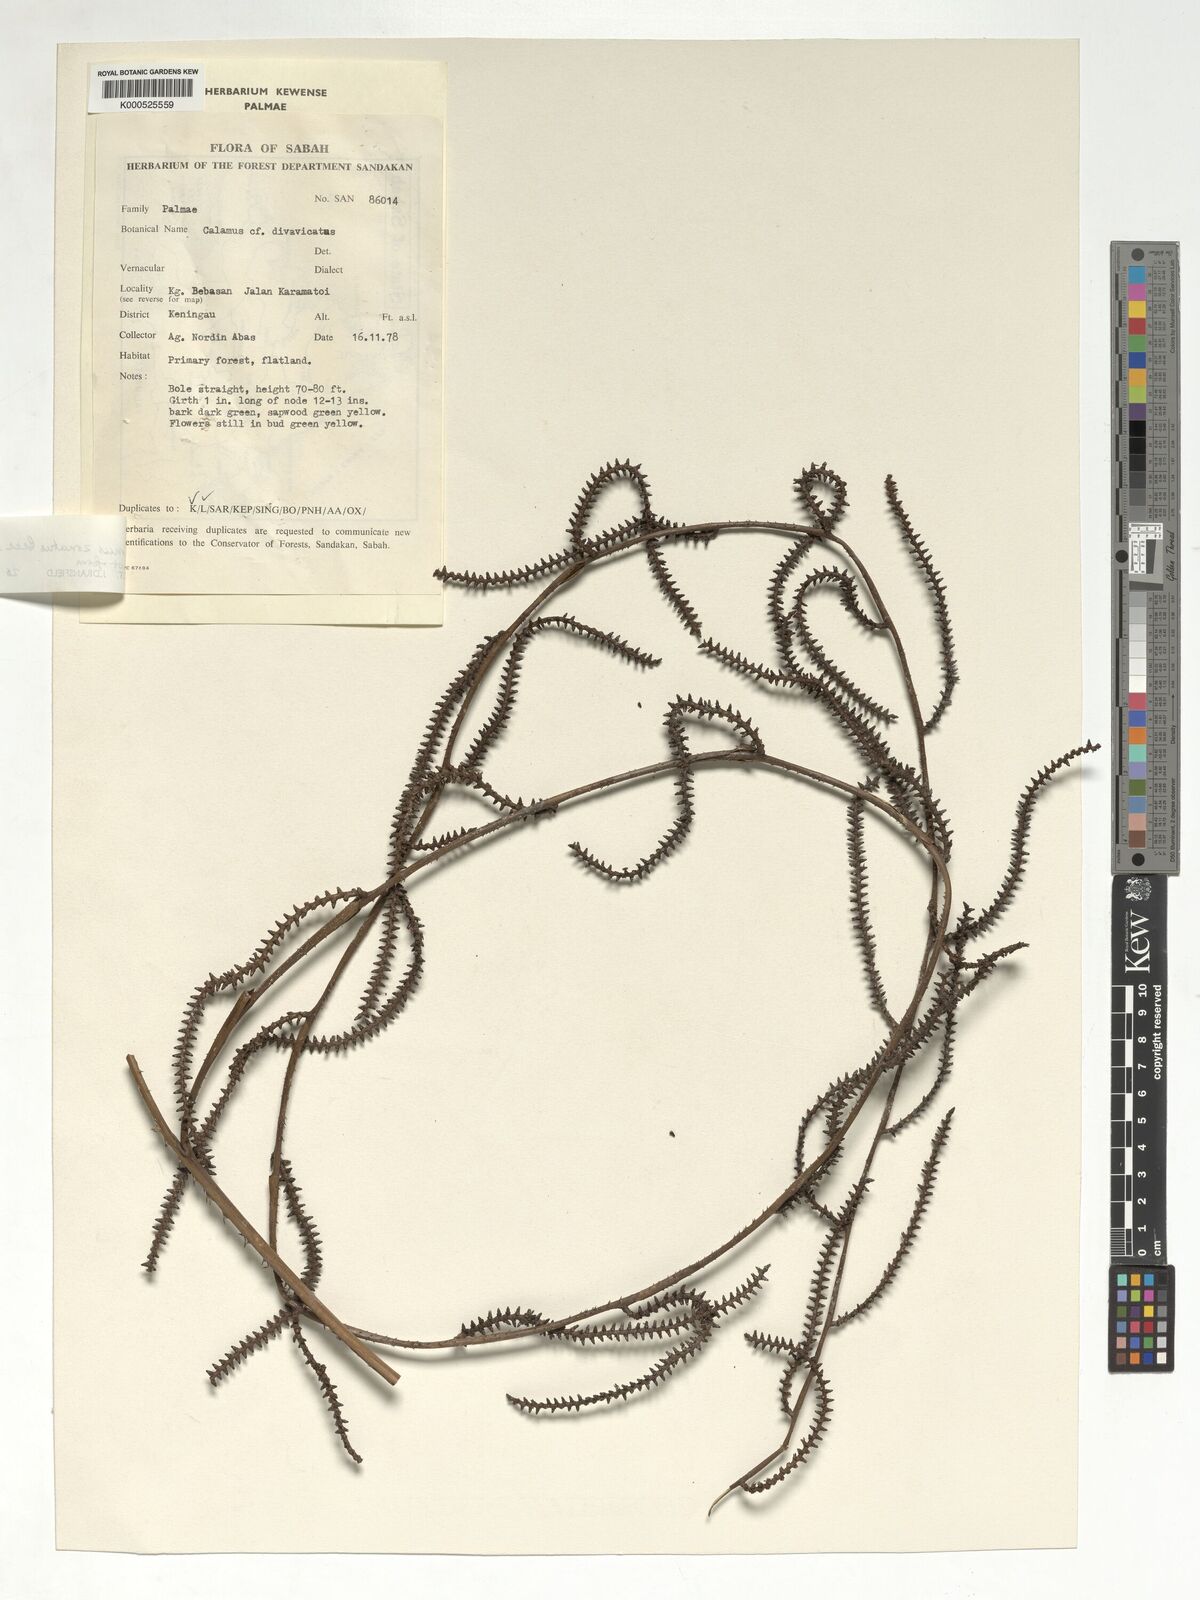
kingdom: Plantae
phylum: Tracheophyta
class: Liliopsida
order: Arecales
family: Arecaceae
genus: Calamus
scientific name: Calamus zonatus
